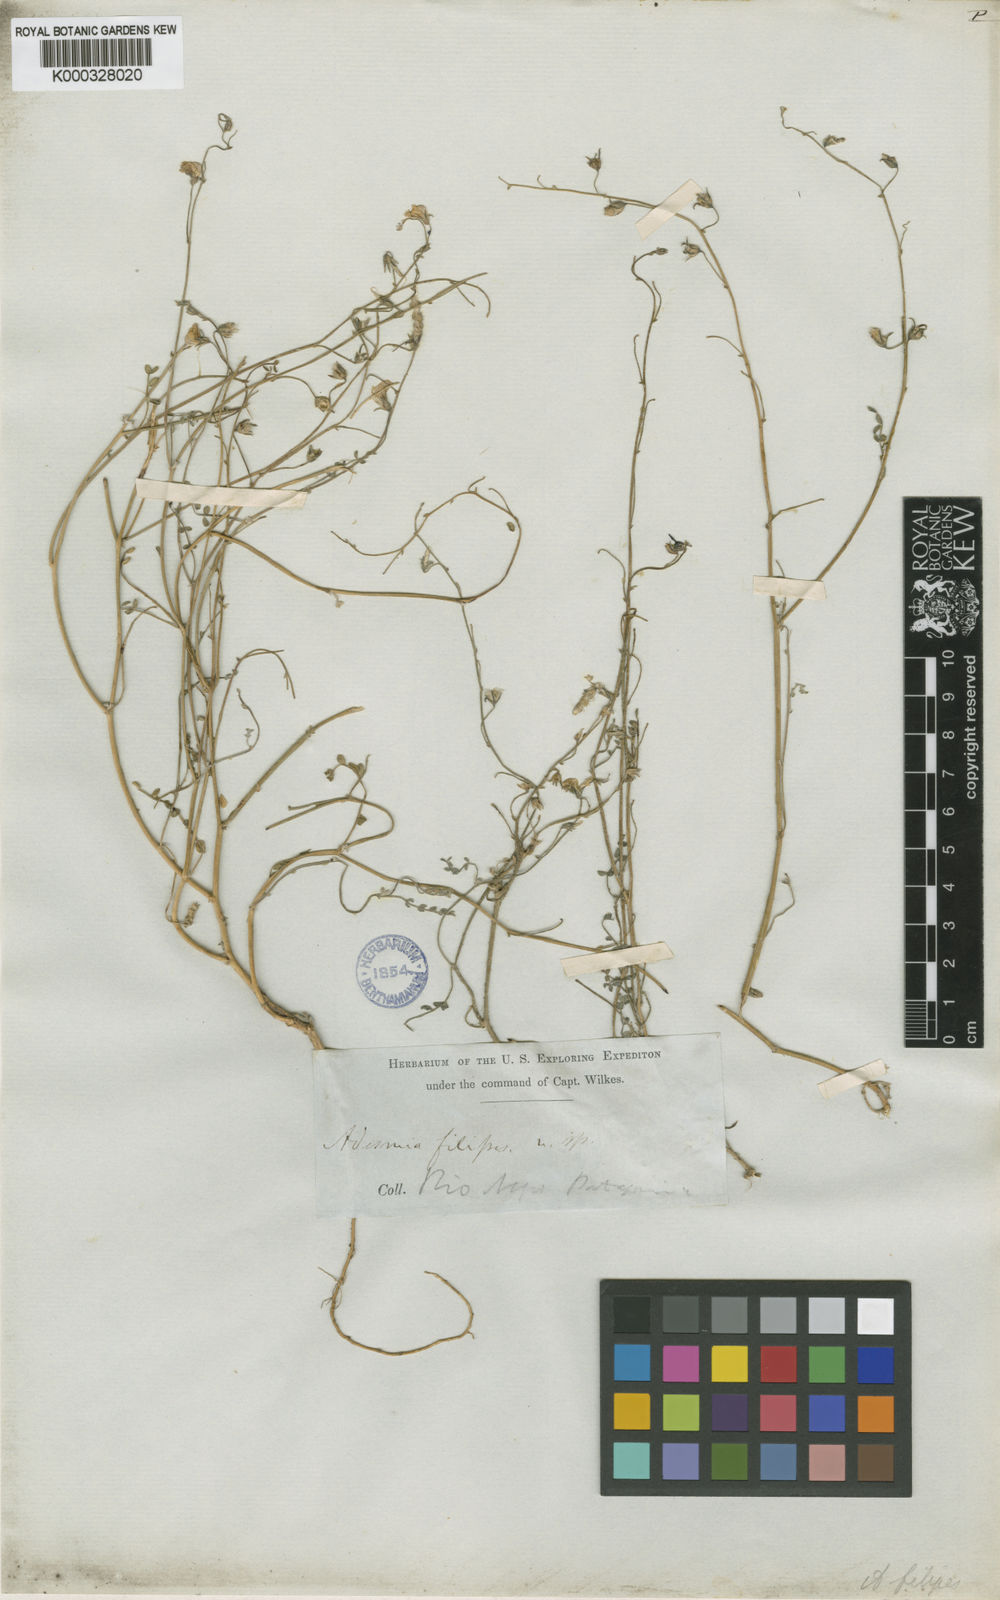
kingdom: Plantae
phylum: Tracheophyta
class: Magnoliopsida
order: Fabales
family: Fabaceae
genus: Adesmia
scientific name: Adesmia filipes
